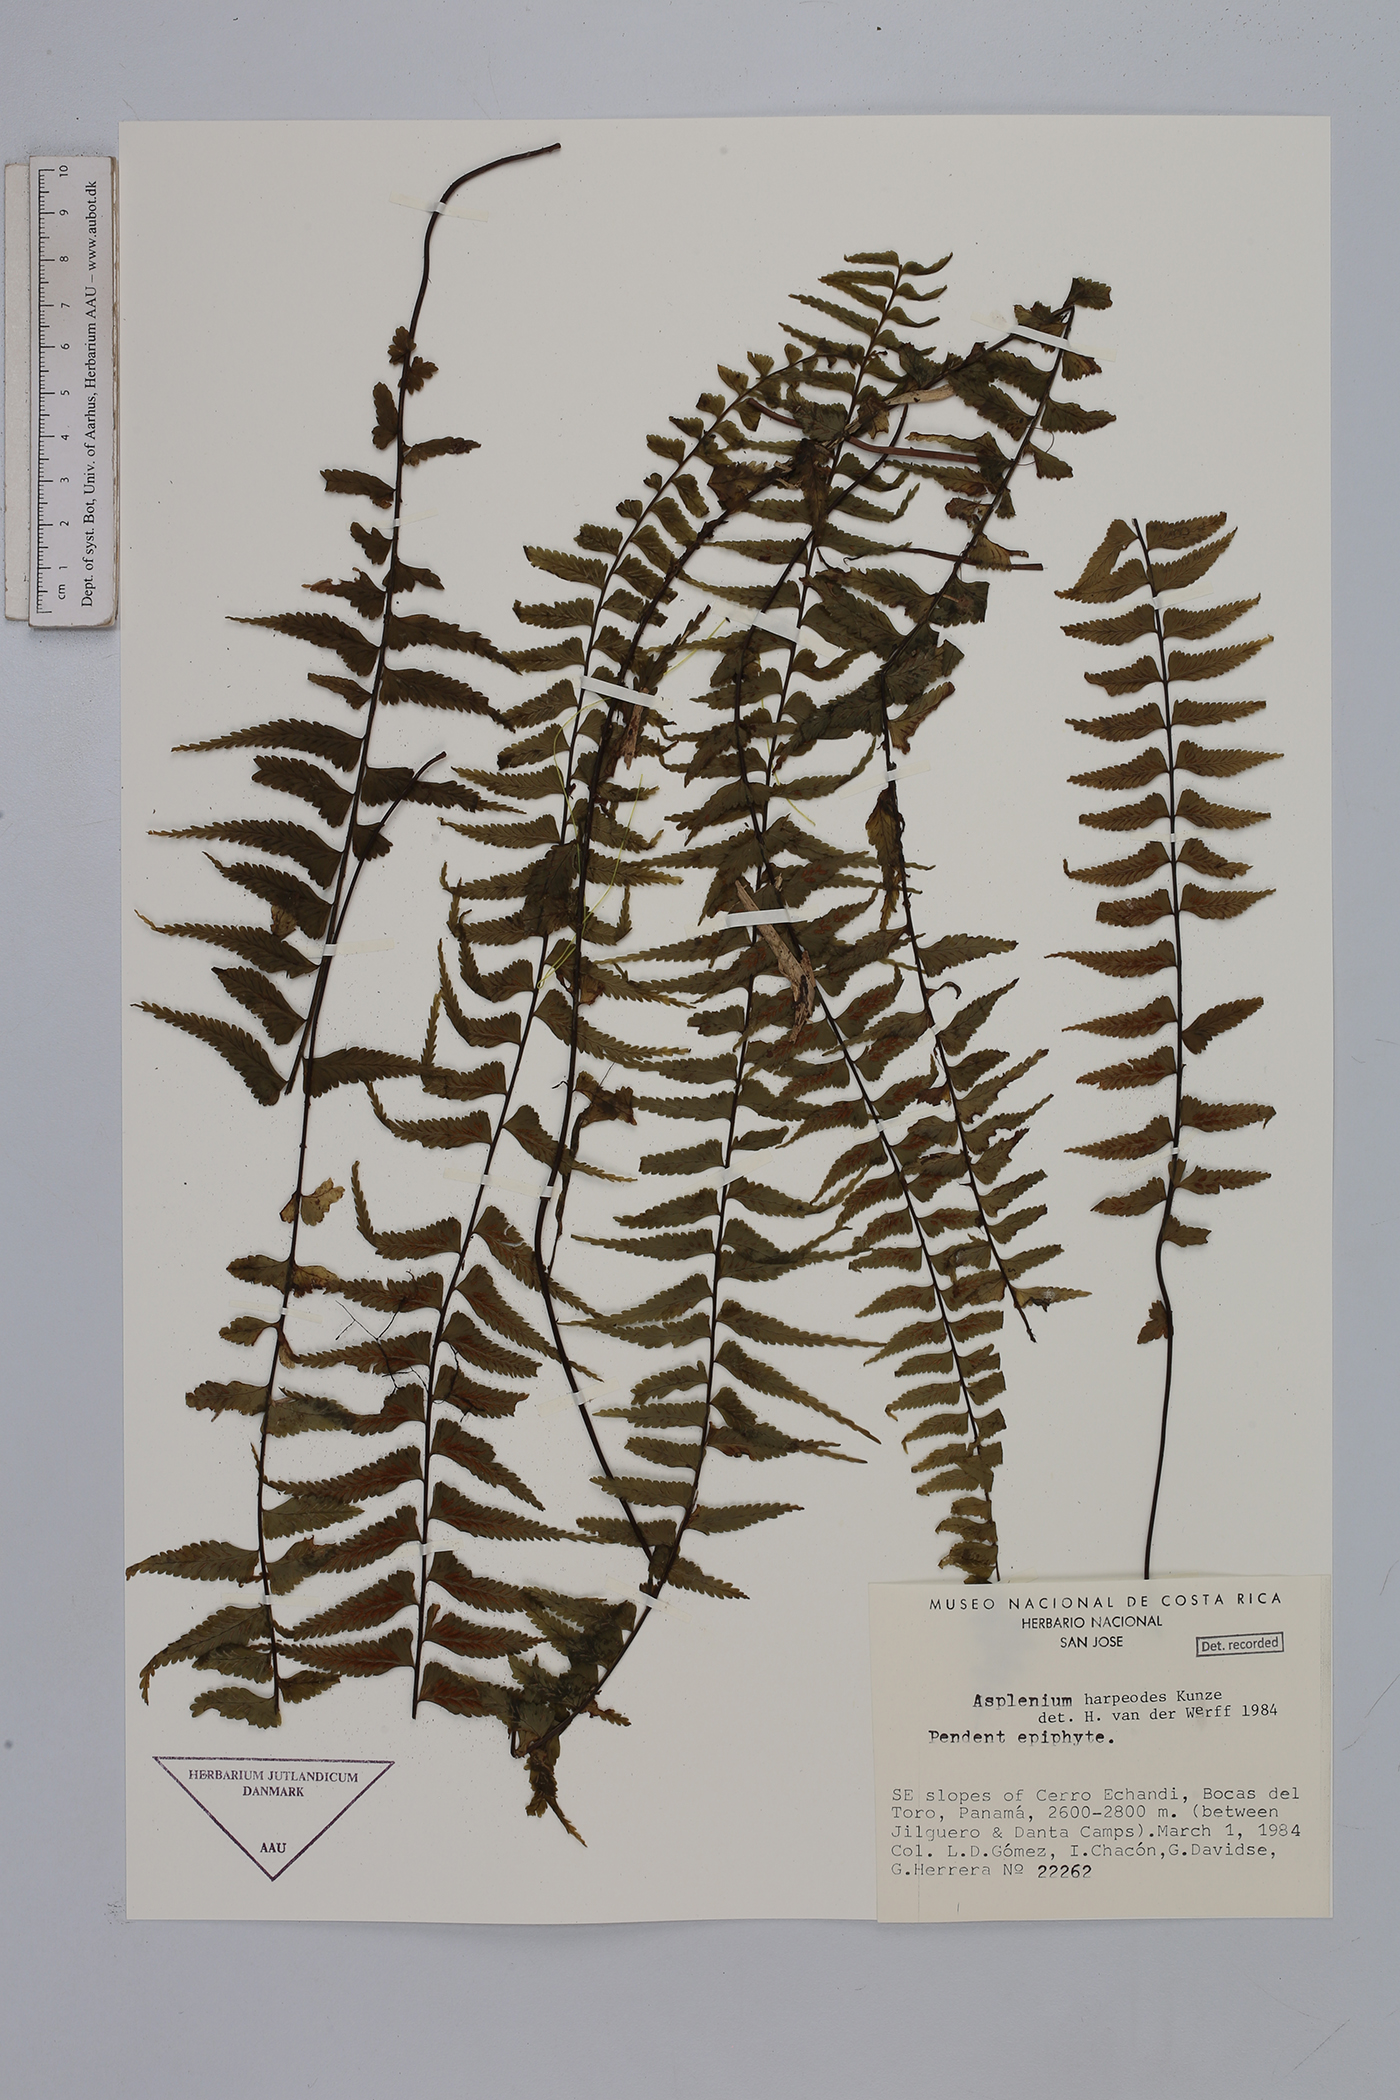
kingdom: Plantae
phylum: Tracheophyta
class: Polypodiopsida
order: Polypodiales
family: Aspleniaceae
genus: Asplenium
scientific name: Asplenium harpeodes
